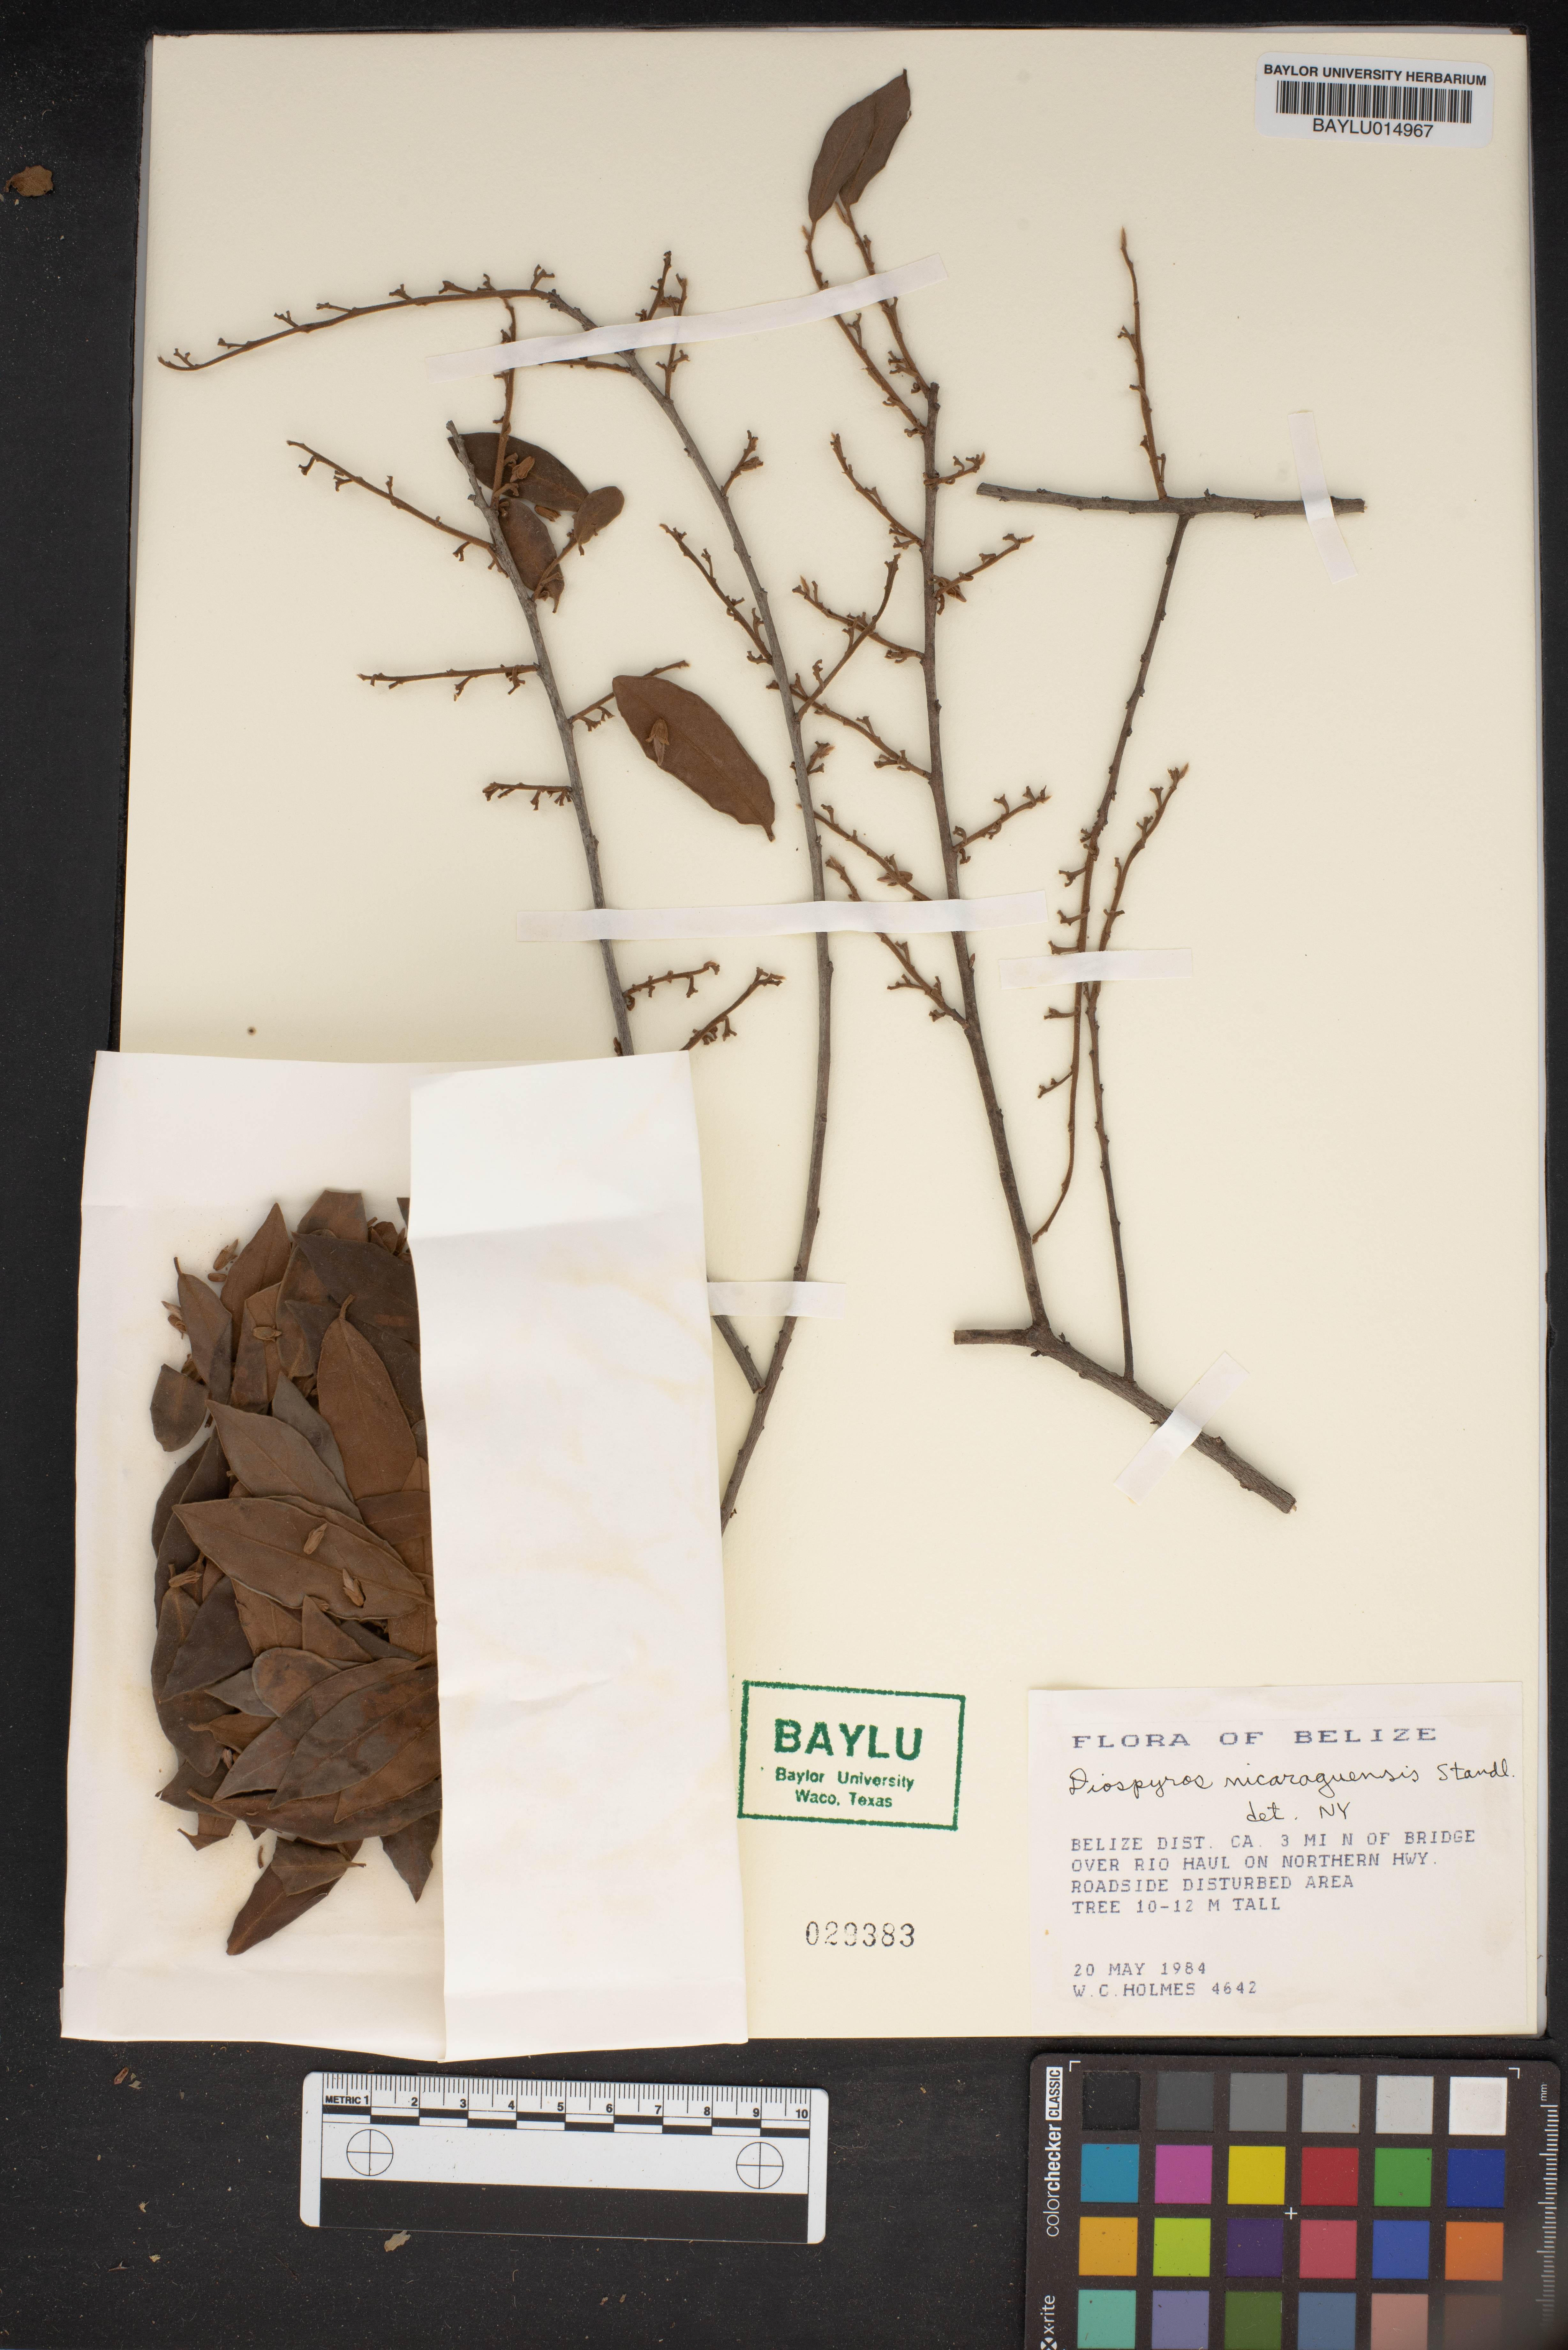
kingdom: Plantae
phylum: Tracheophyta
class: Magnoliopsida
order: Ericales
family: Ebenaceae
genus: Diospyros
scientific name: Diospyros acapulcensis
